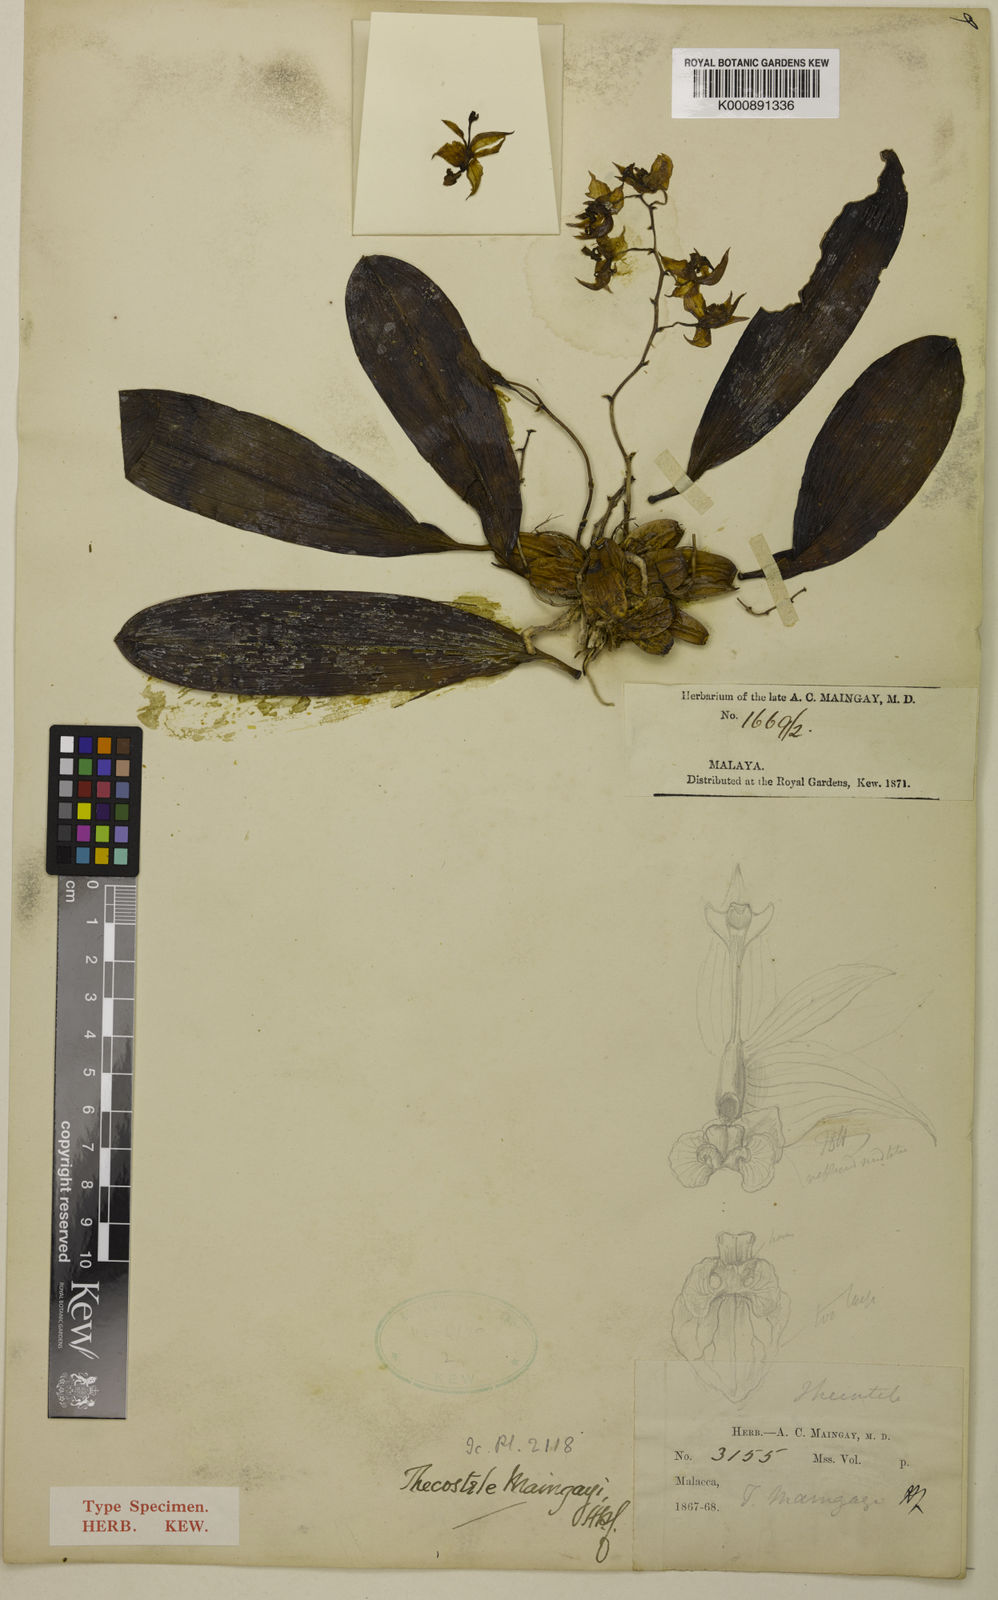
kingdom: Plantae
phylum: Tracheophyta
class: Liliopsida
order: Asparagales
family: Orchidaceae
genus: Thecopus
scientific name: Thecopus maingayi
